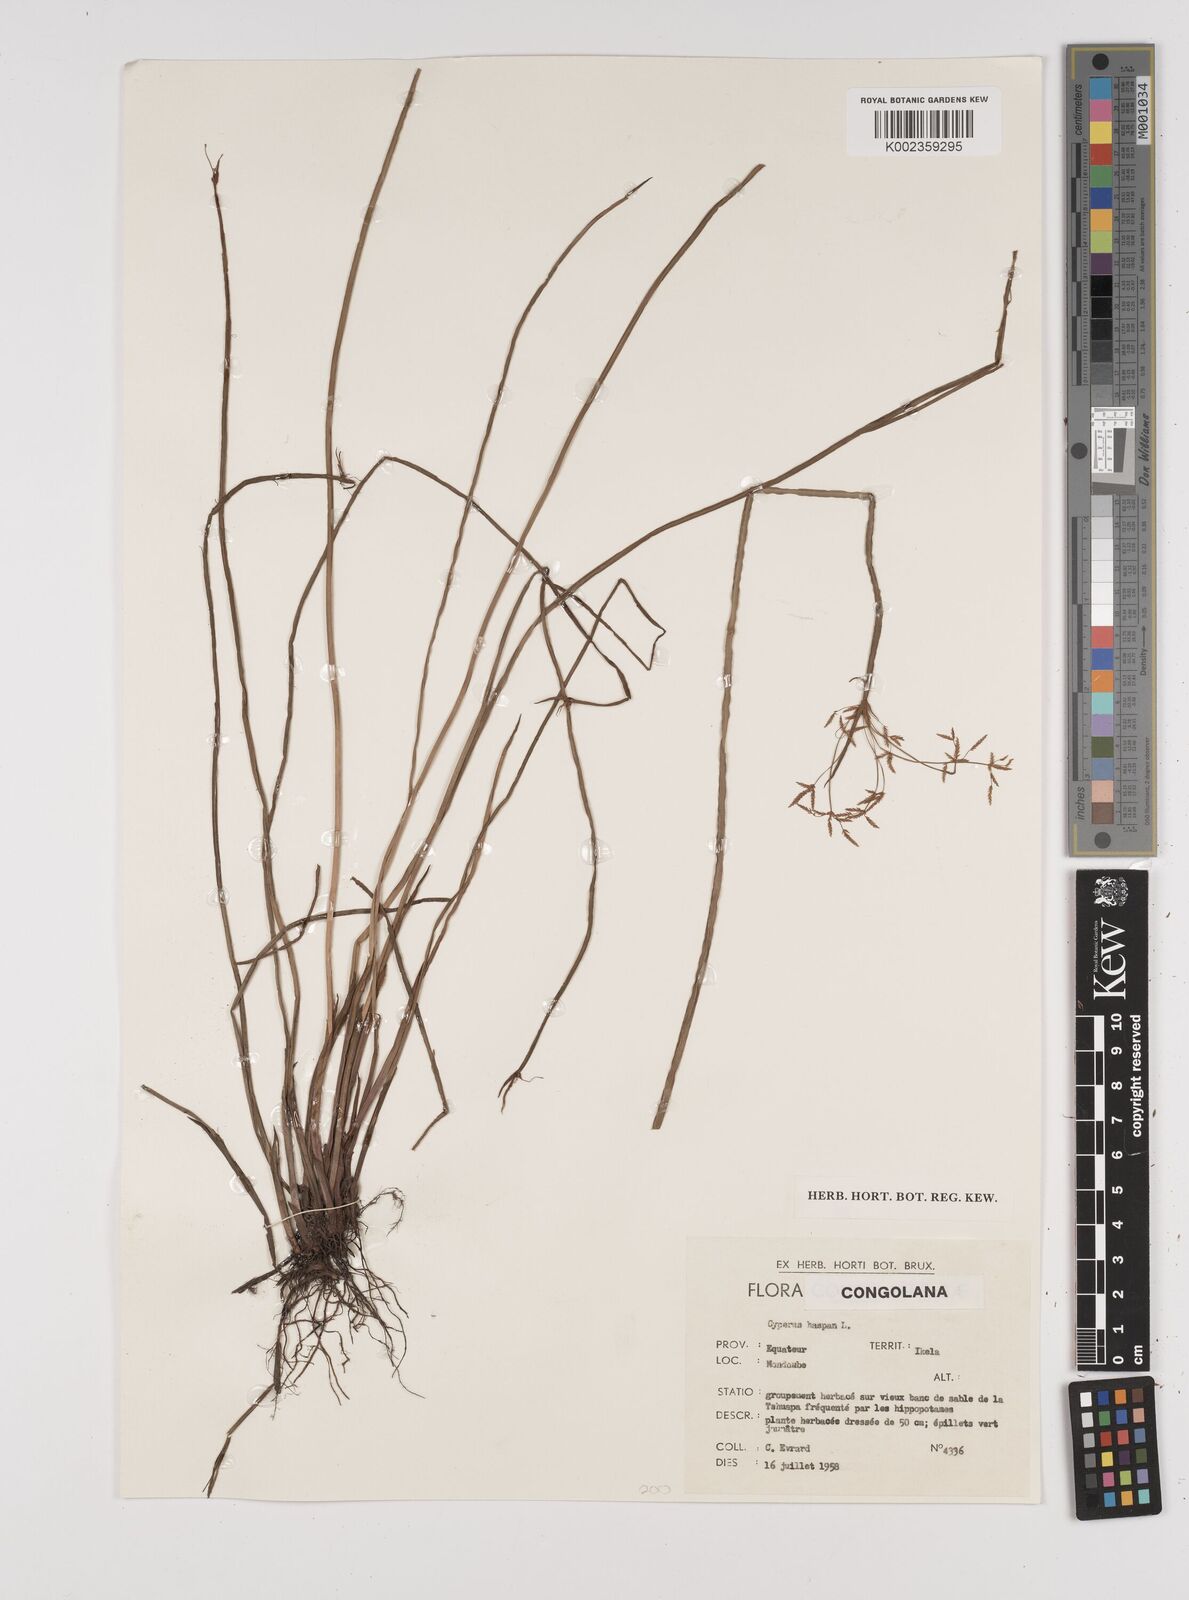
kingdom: Plantae
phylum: Tracheophyta
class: Liliopsida
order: Poales
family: Cyperaceae
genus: Cyperus
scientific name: Cyperus haspan
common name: Haspan flatsedge
